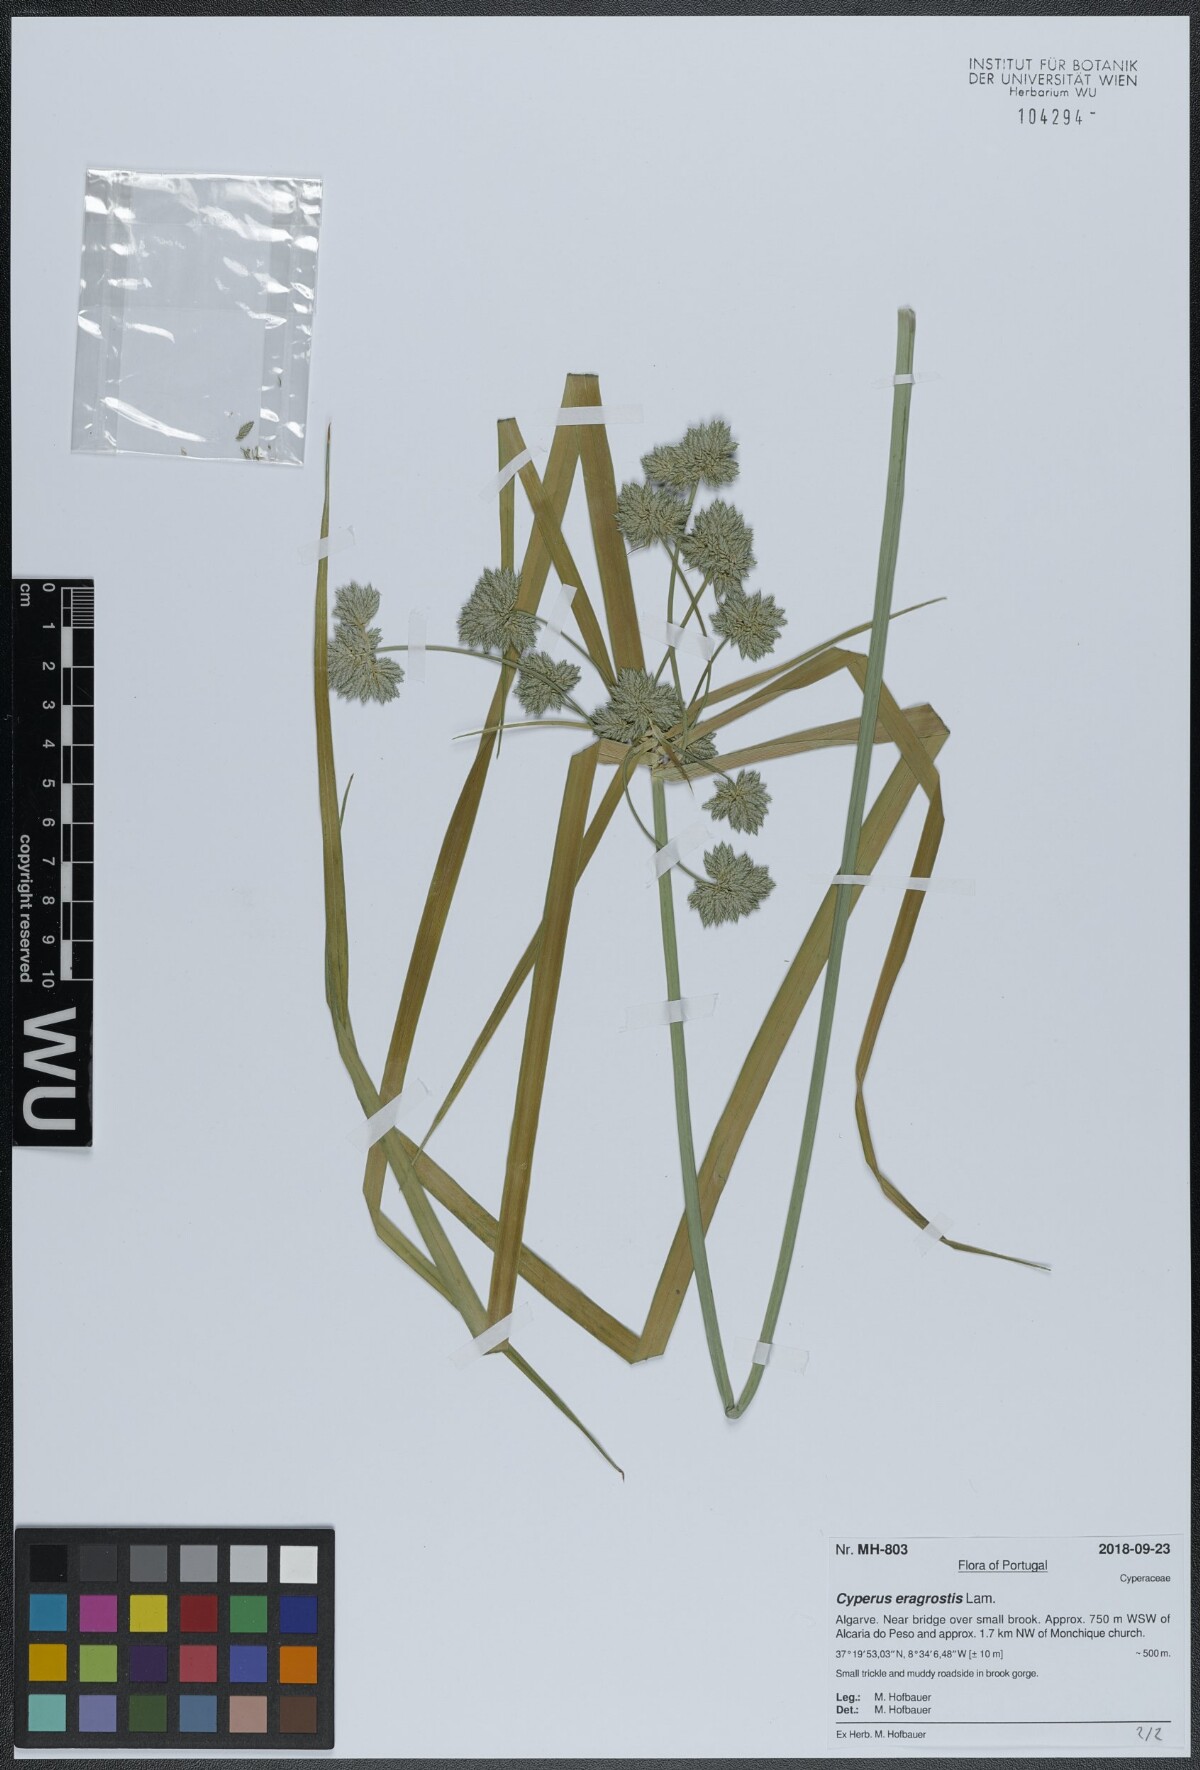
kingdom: Plantae
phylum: Tracheophyta
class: Liliopsida
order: Poales
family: Cyperaceae
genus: Cyperus
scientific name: Cyperus eragrostis
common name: Tall flatsedge
